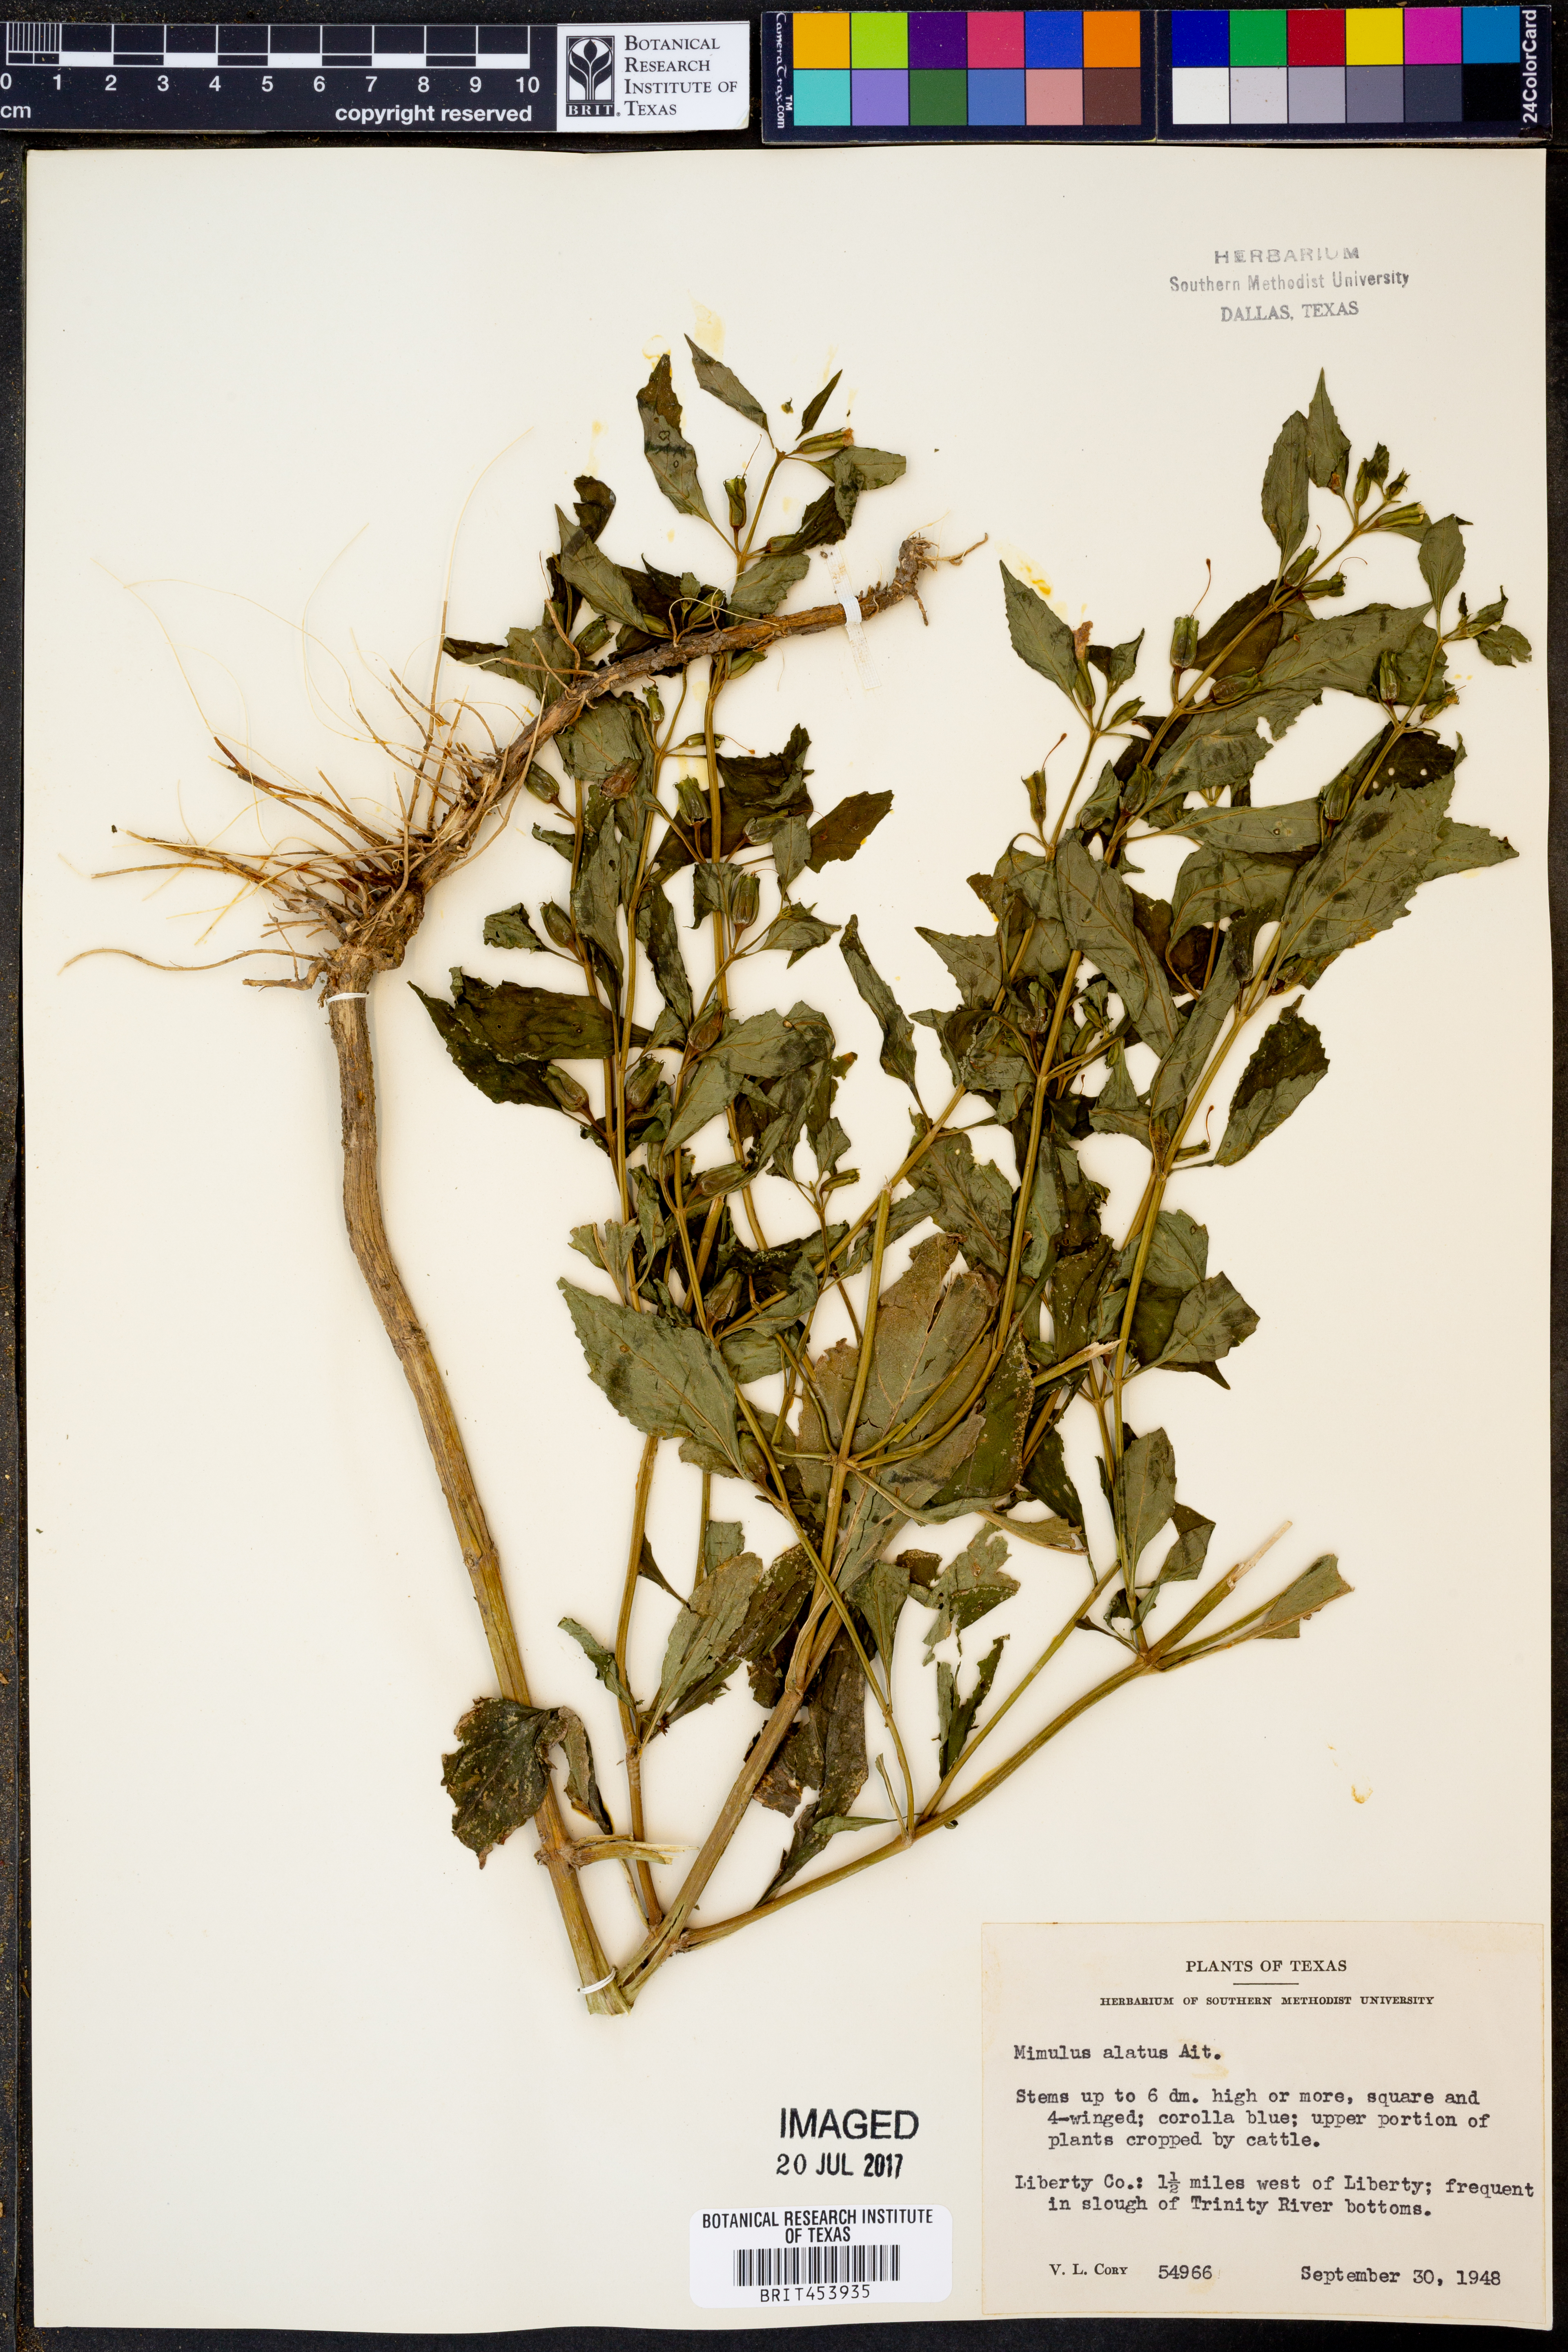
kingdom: Plantae
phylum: Tracheophyta
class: Magnoliopsida
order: Lamiales
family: Phrymaceae
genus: Mimulus
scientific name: Mimulus alatus
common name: Sharp-wing monkey-flower
